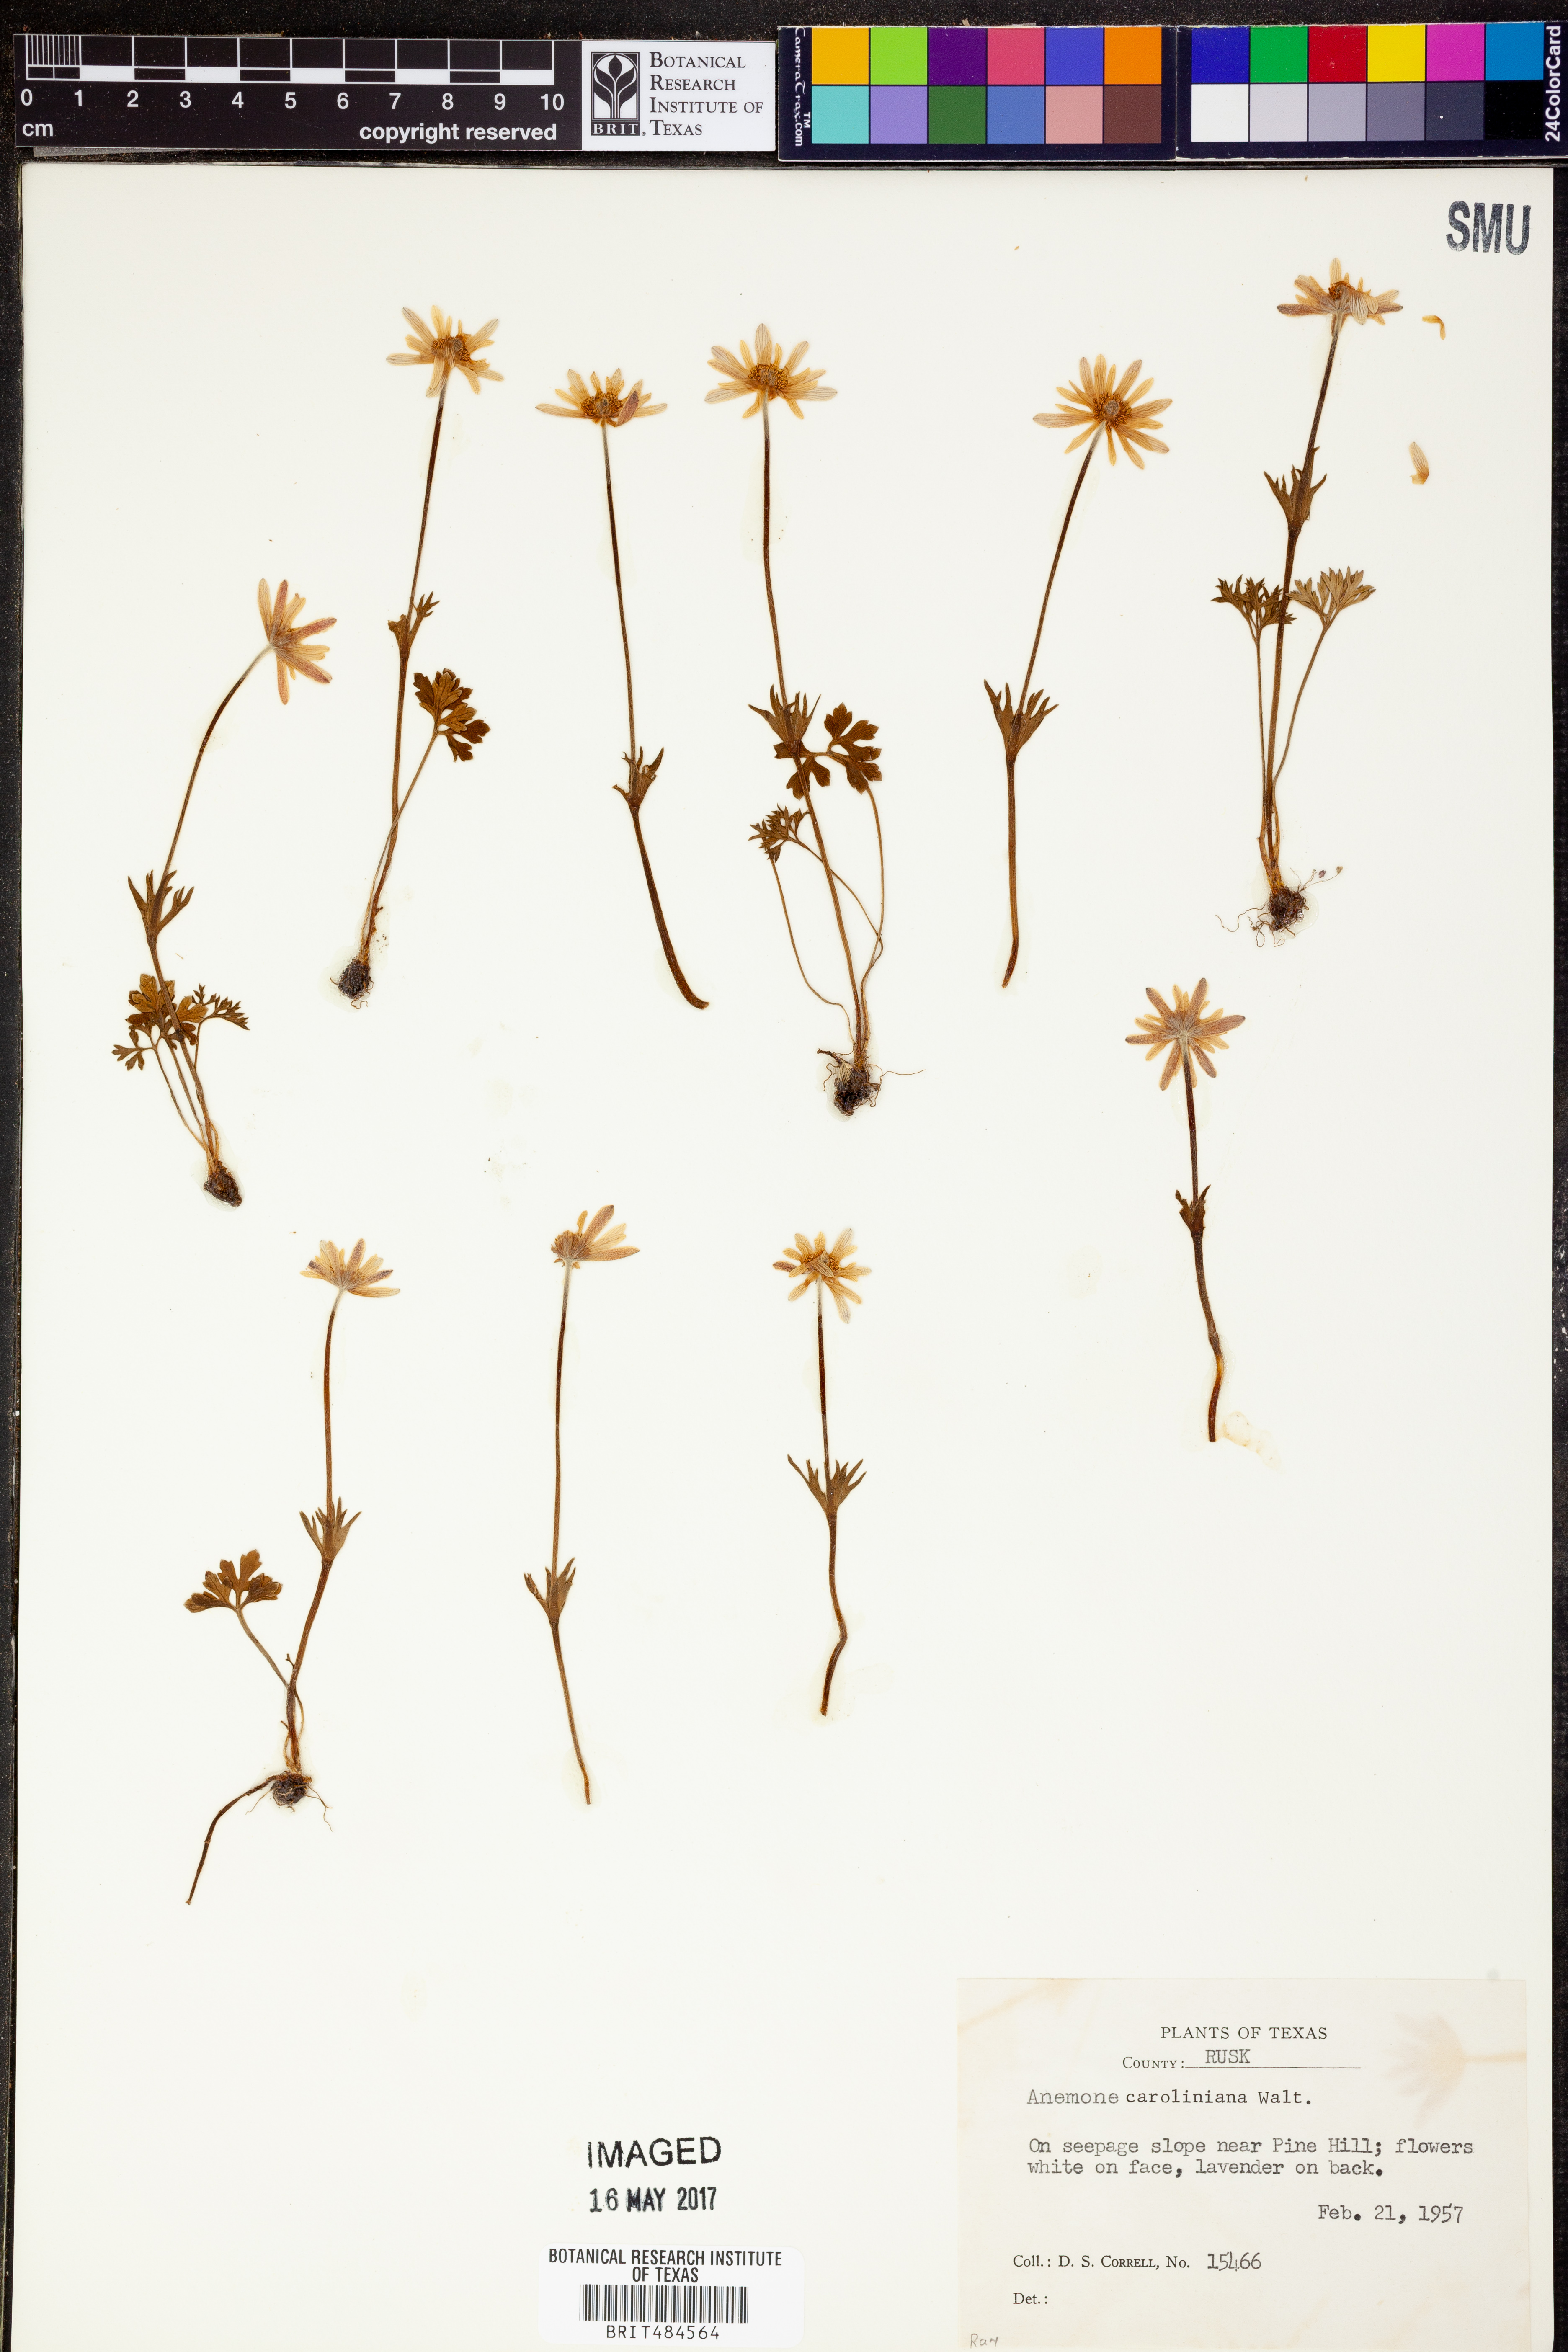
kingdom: Plantae
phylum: Tracheophyta
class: Magnoliopsida
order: Ranunculales
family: Ranunculaceae
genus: Anemone
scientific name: Anemone caroliniana
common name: Carolina anemone
